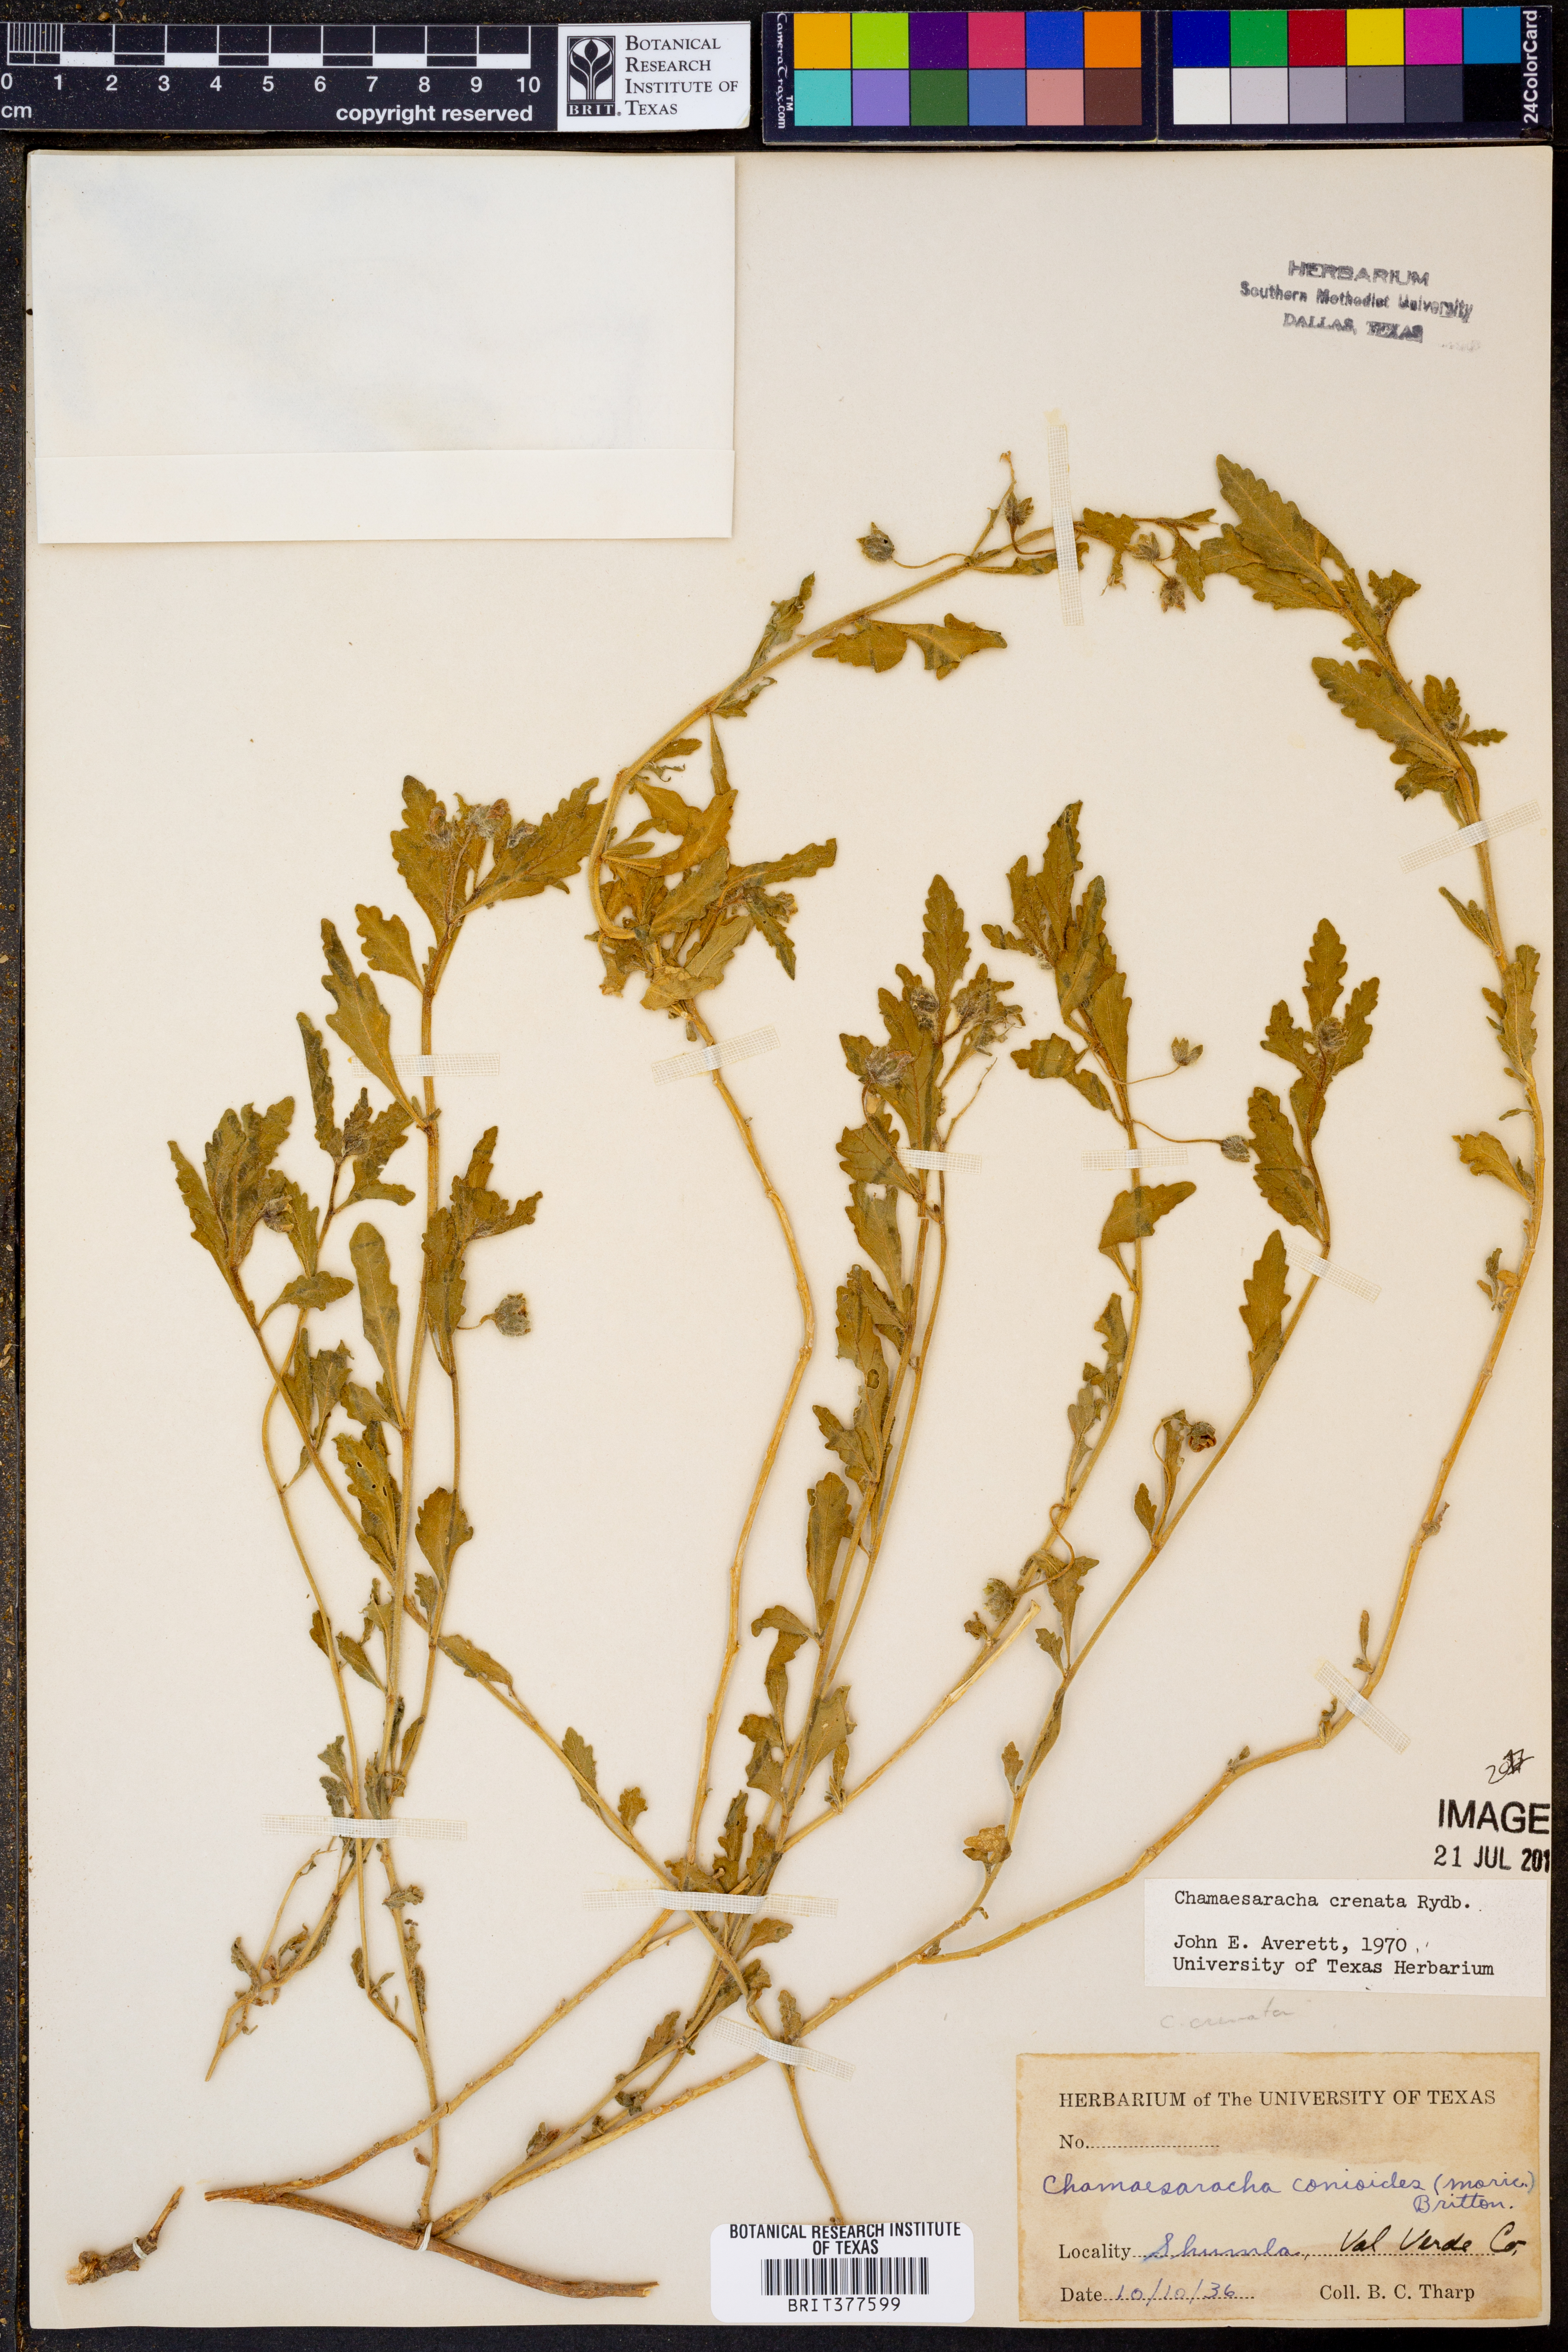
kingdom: Plantae
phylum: Tracheophyta
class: Magnoliopsida
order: Solanales
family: Solanaceae
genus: Chamaesaracha
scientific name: Chamaesaracha crenata
